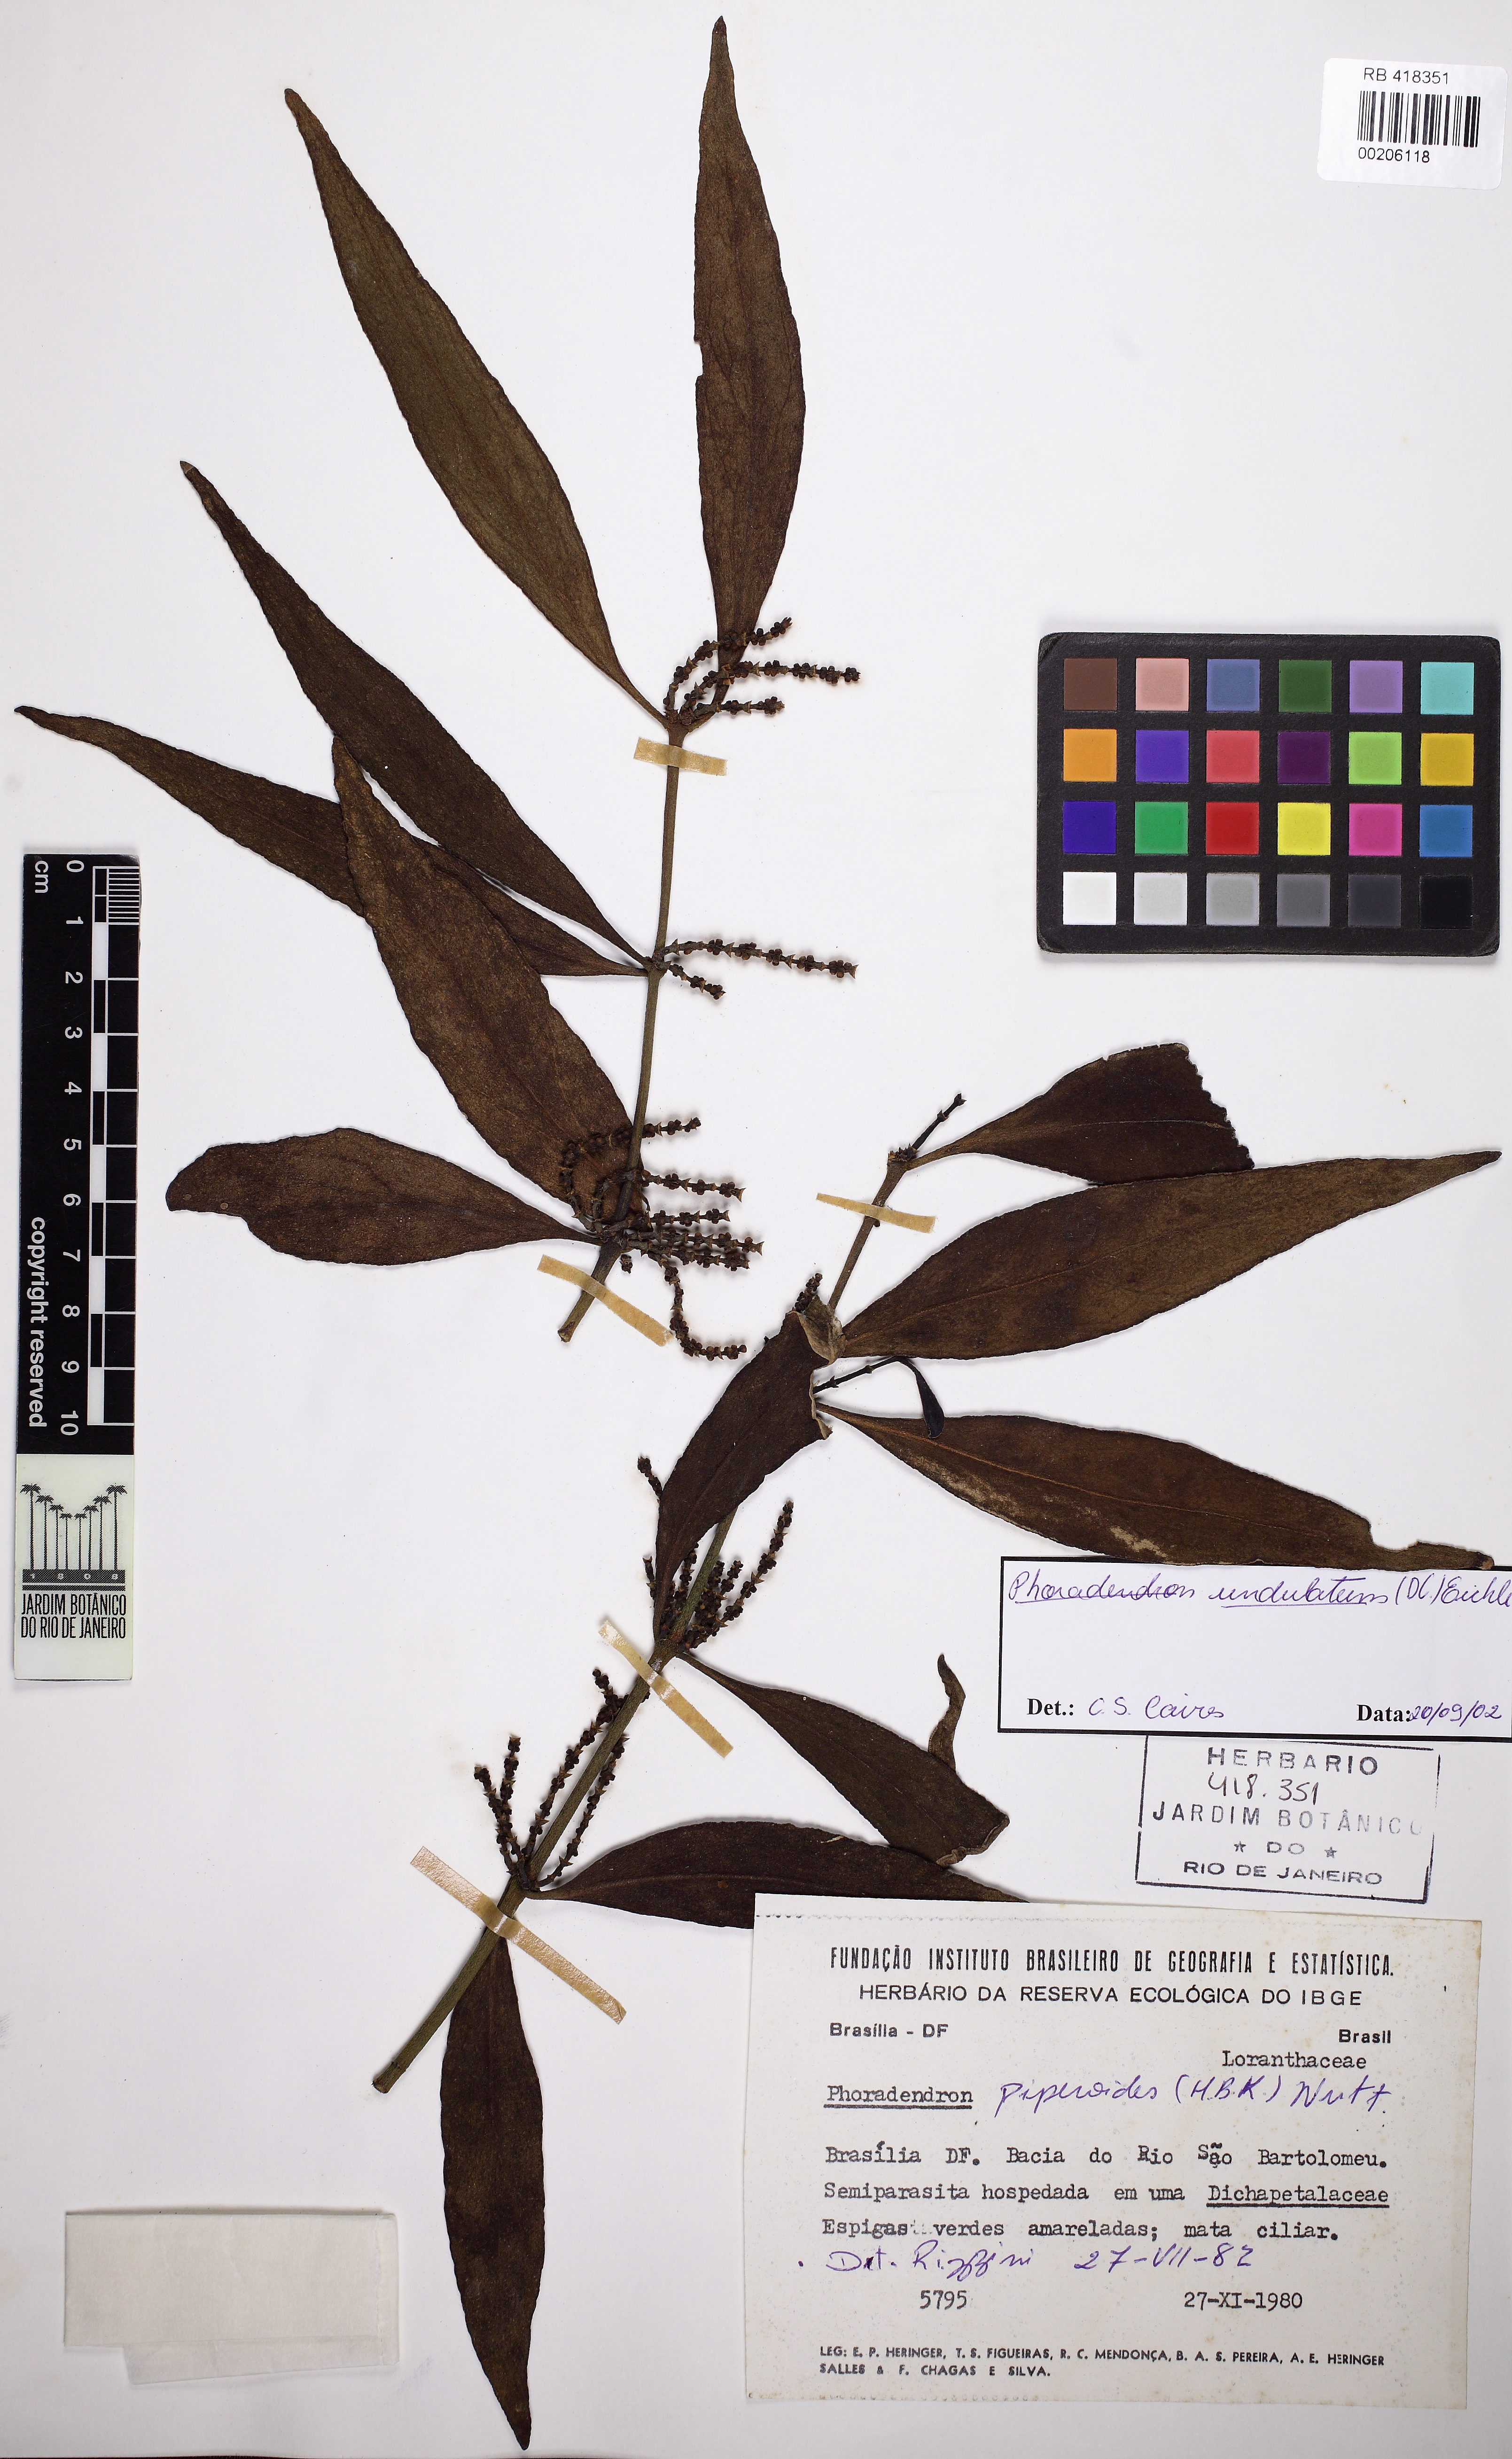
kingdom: Plantae
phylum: Tracheophyta
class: Magnoliopsida
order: Santalales
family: Viscaceae
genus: Phoradendron
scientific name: Phoradendron undulatum
